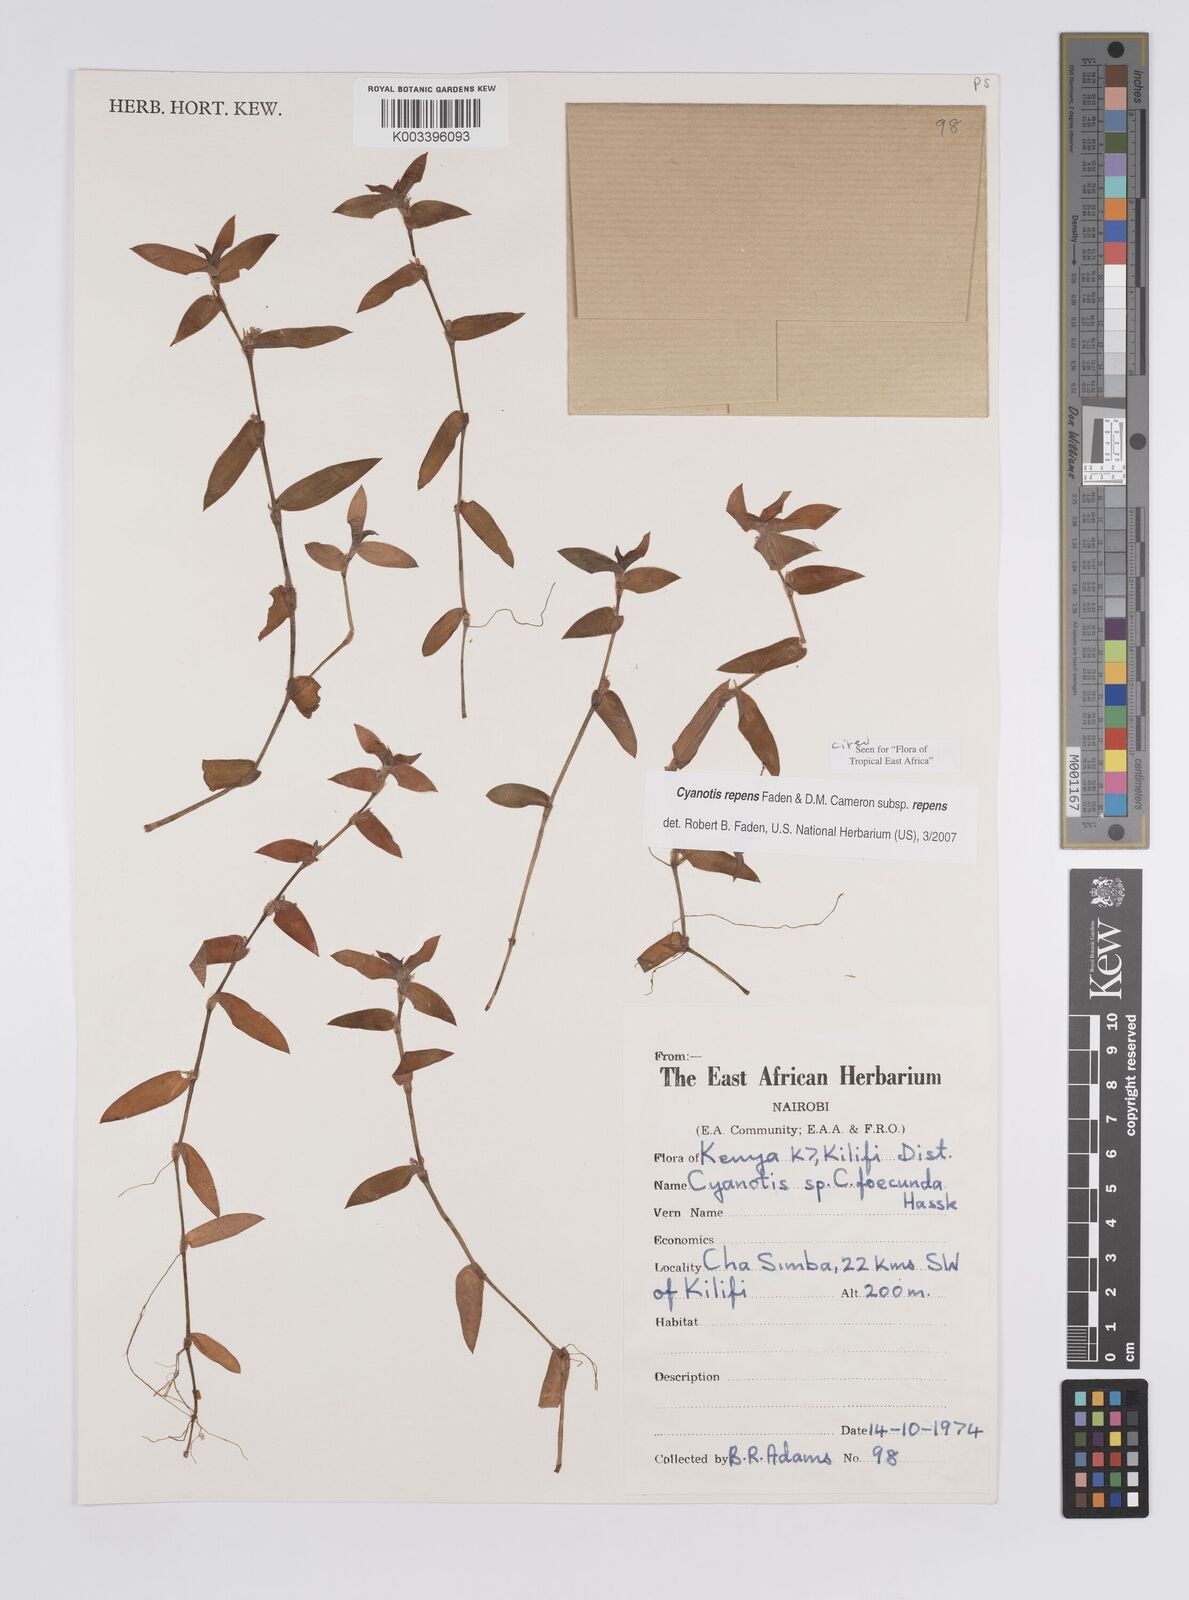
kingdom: Plantae
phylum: Tracheophyta
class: Liliopsida
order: Commelinales
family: Commelinaceae
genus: Cyanotis
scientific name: Cyanotis repens
